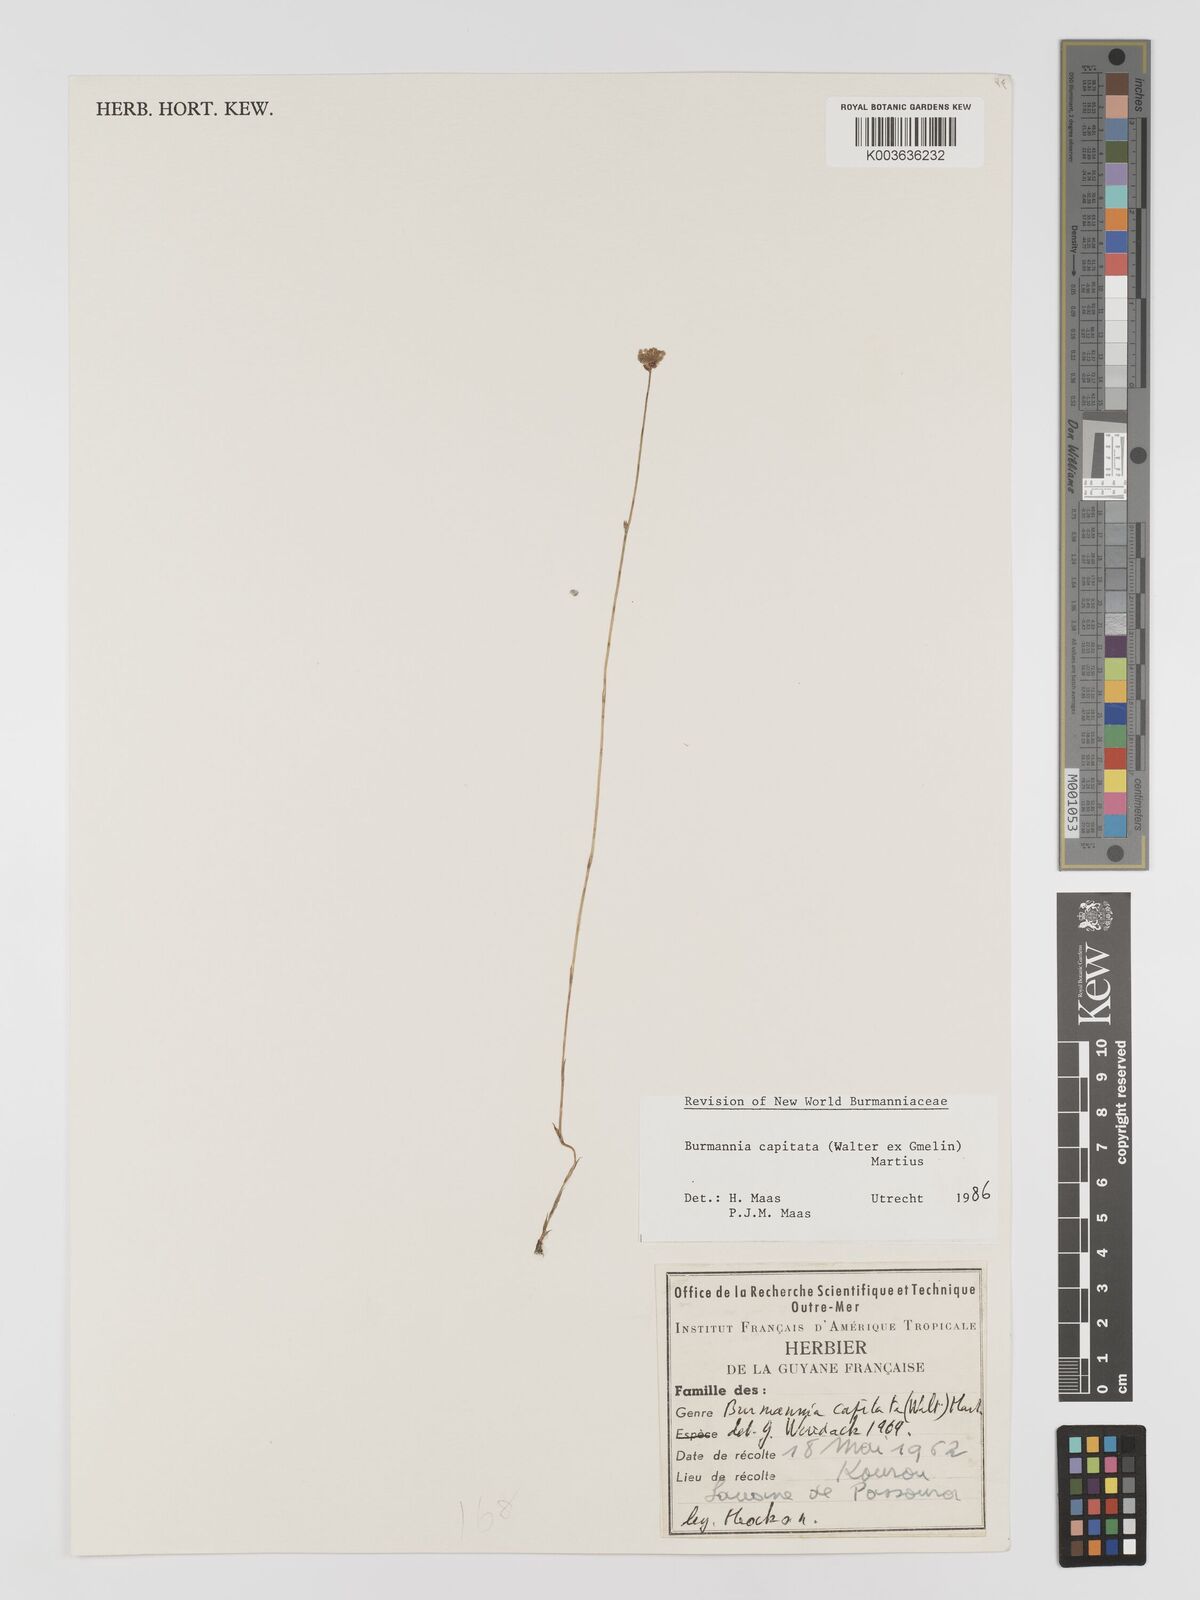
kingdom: Plantae
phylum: Tracheophyta
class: Liliopsida
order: Dioscoreales
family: Burmanniaceae
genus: Burmannia
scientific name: Burmannia capitata
